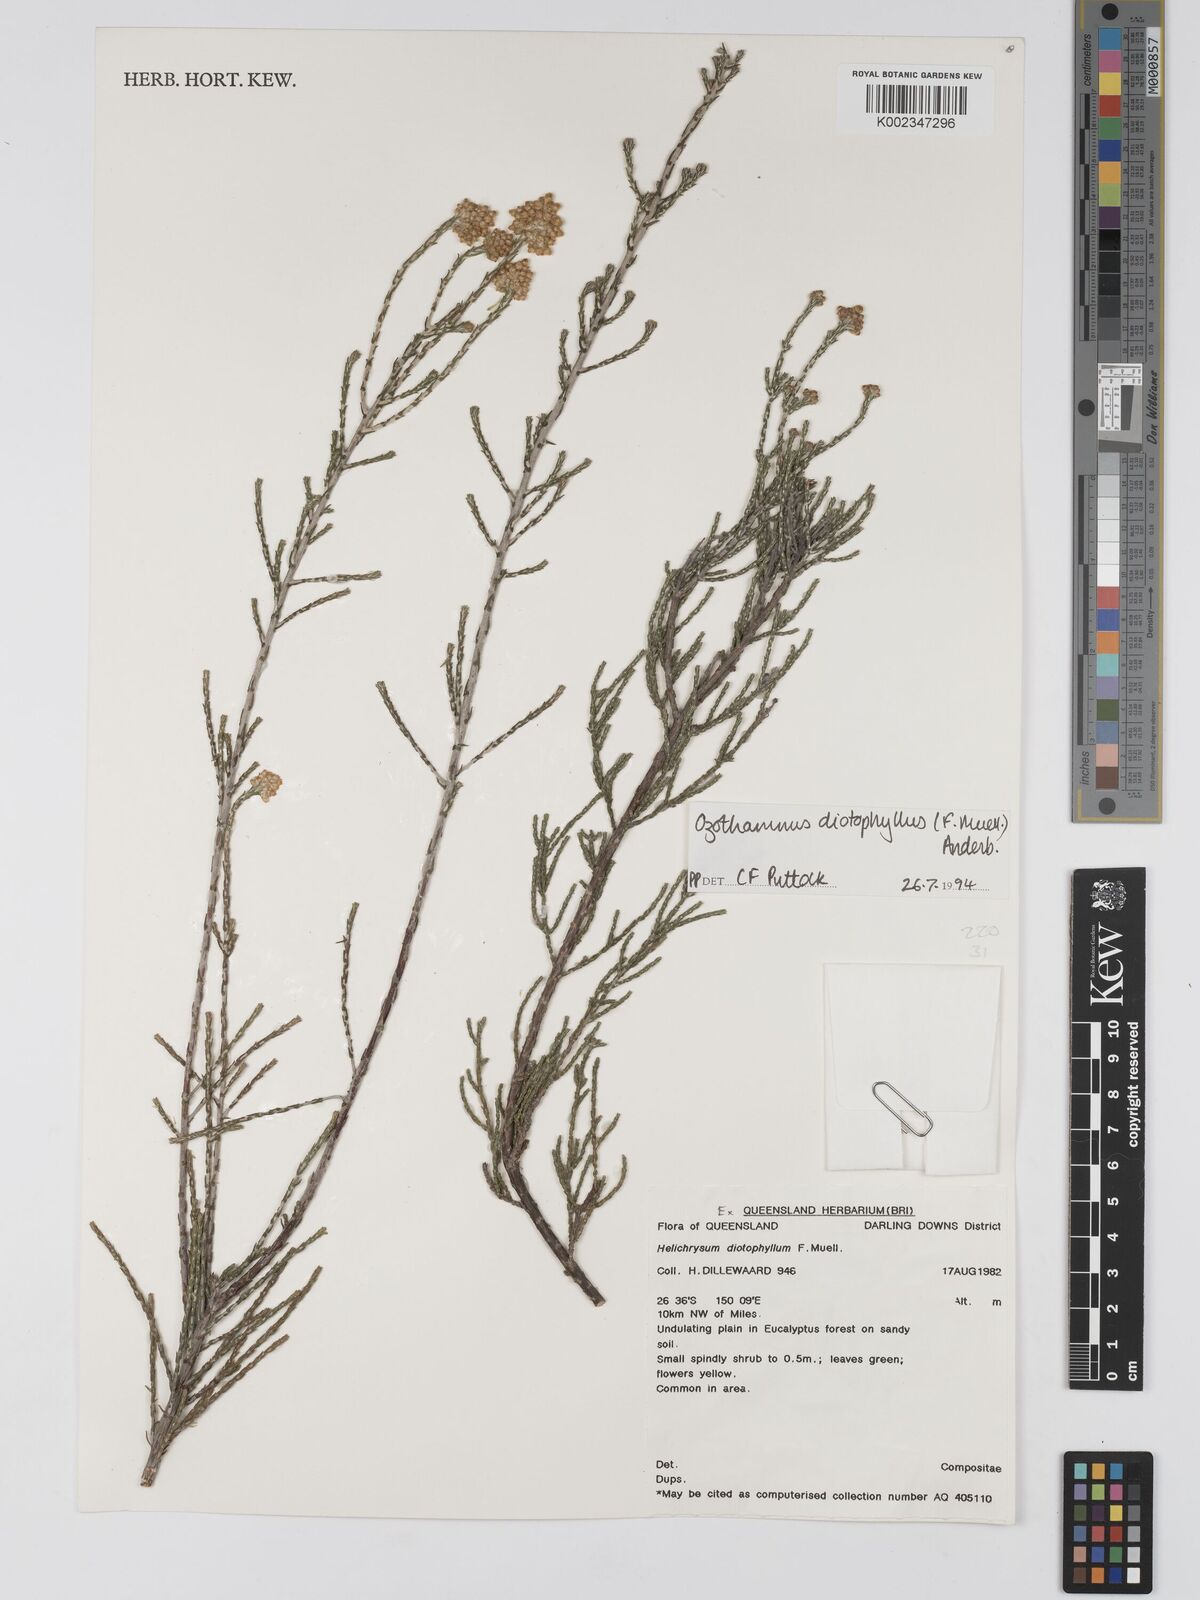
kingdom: Plantae
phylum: Tracheophyta
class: Magnoliopsida
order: Asterales
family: Asteraceae
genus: Ozothamnus
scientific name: Ozothamnus diotophyllus
